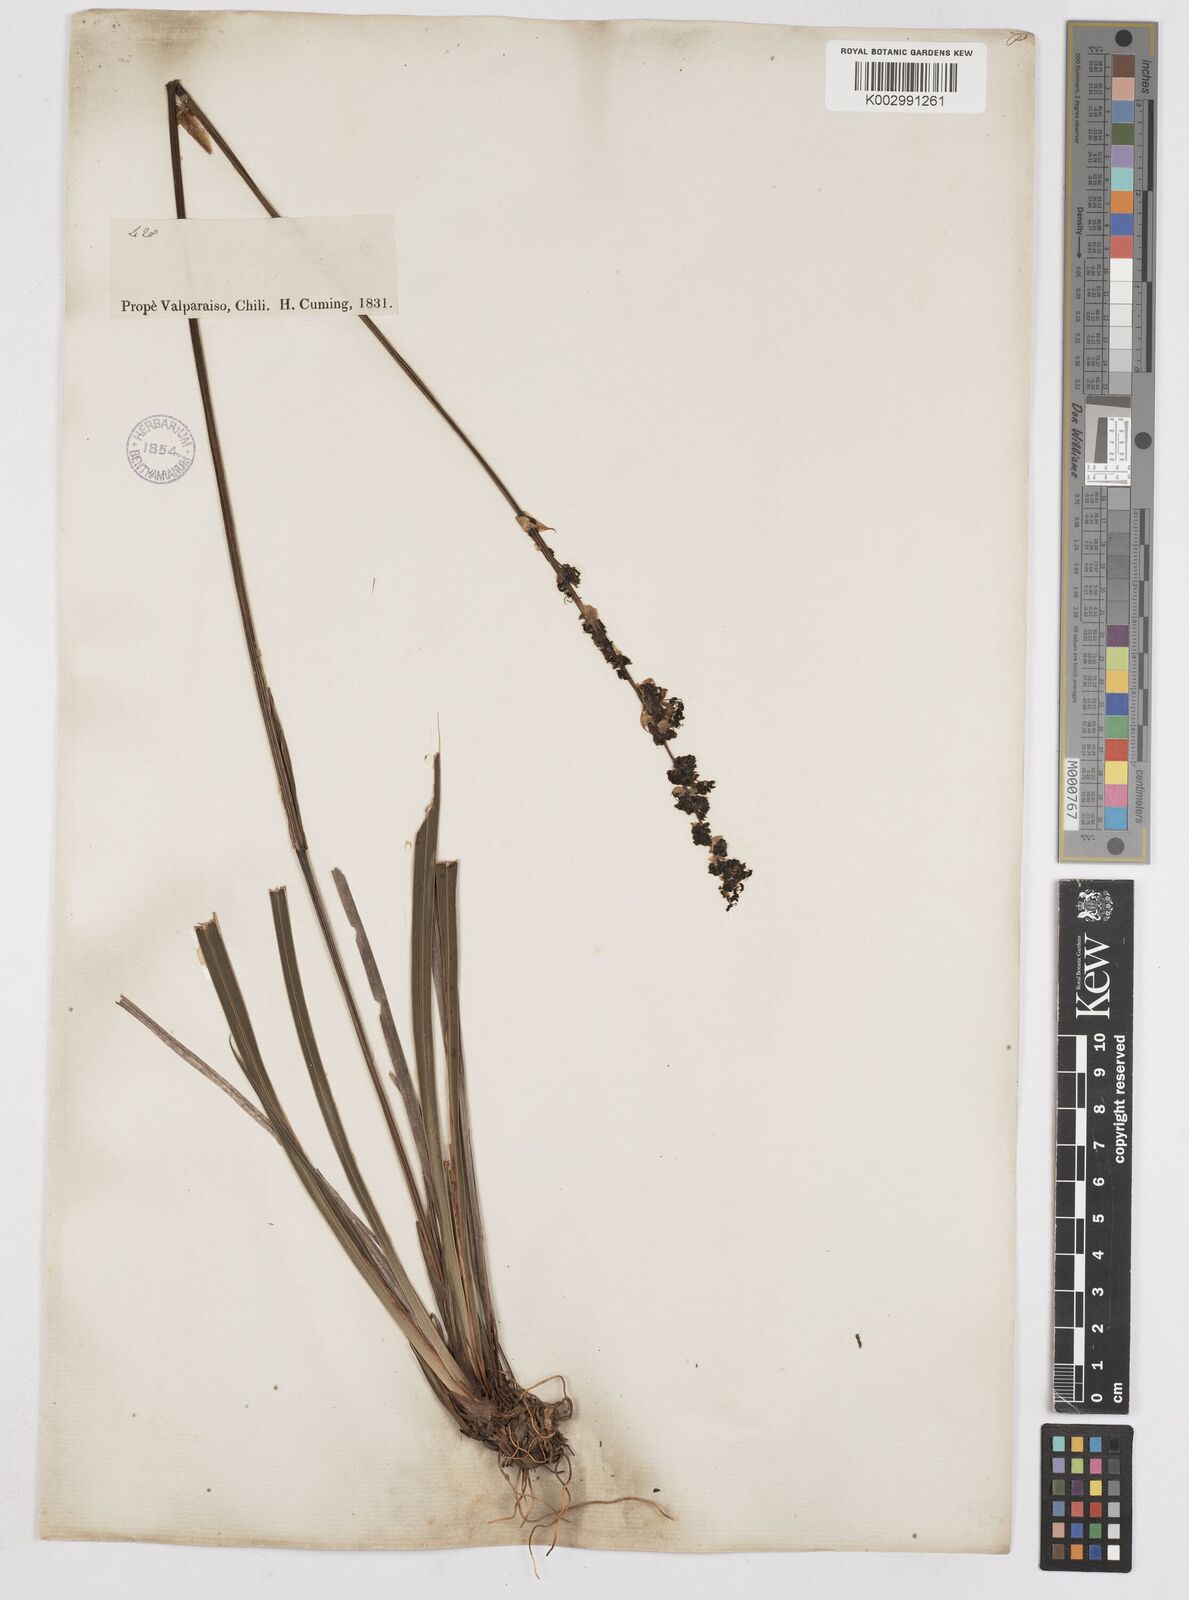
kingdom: Plantae
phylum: Tracheophyta
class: Liliopsida
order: Asparagales
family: Iridaceae
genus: Libertia
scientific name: Libertia sessiliflora
